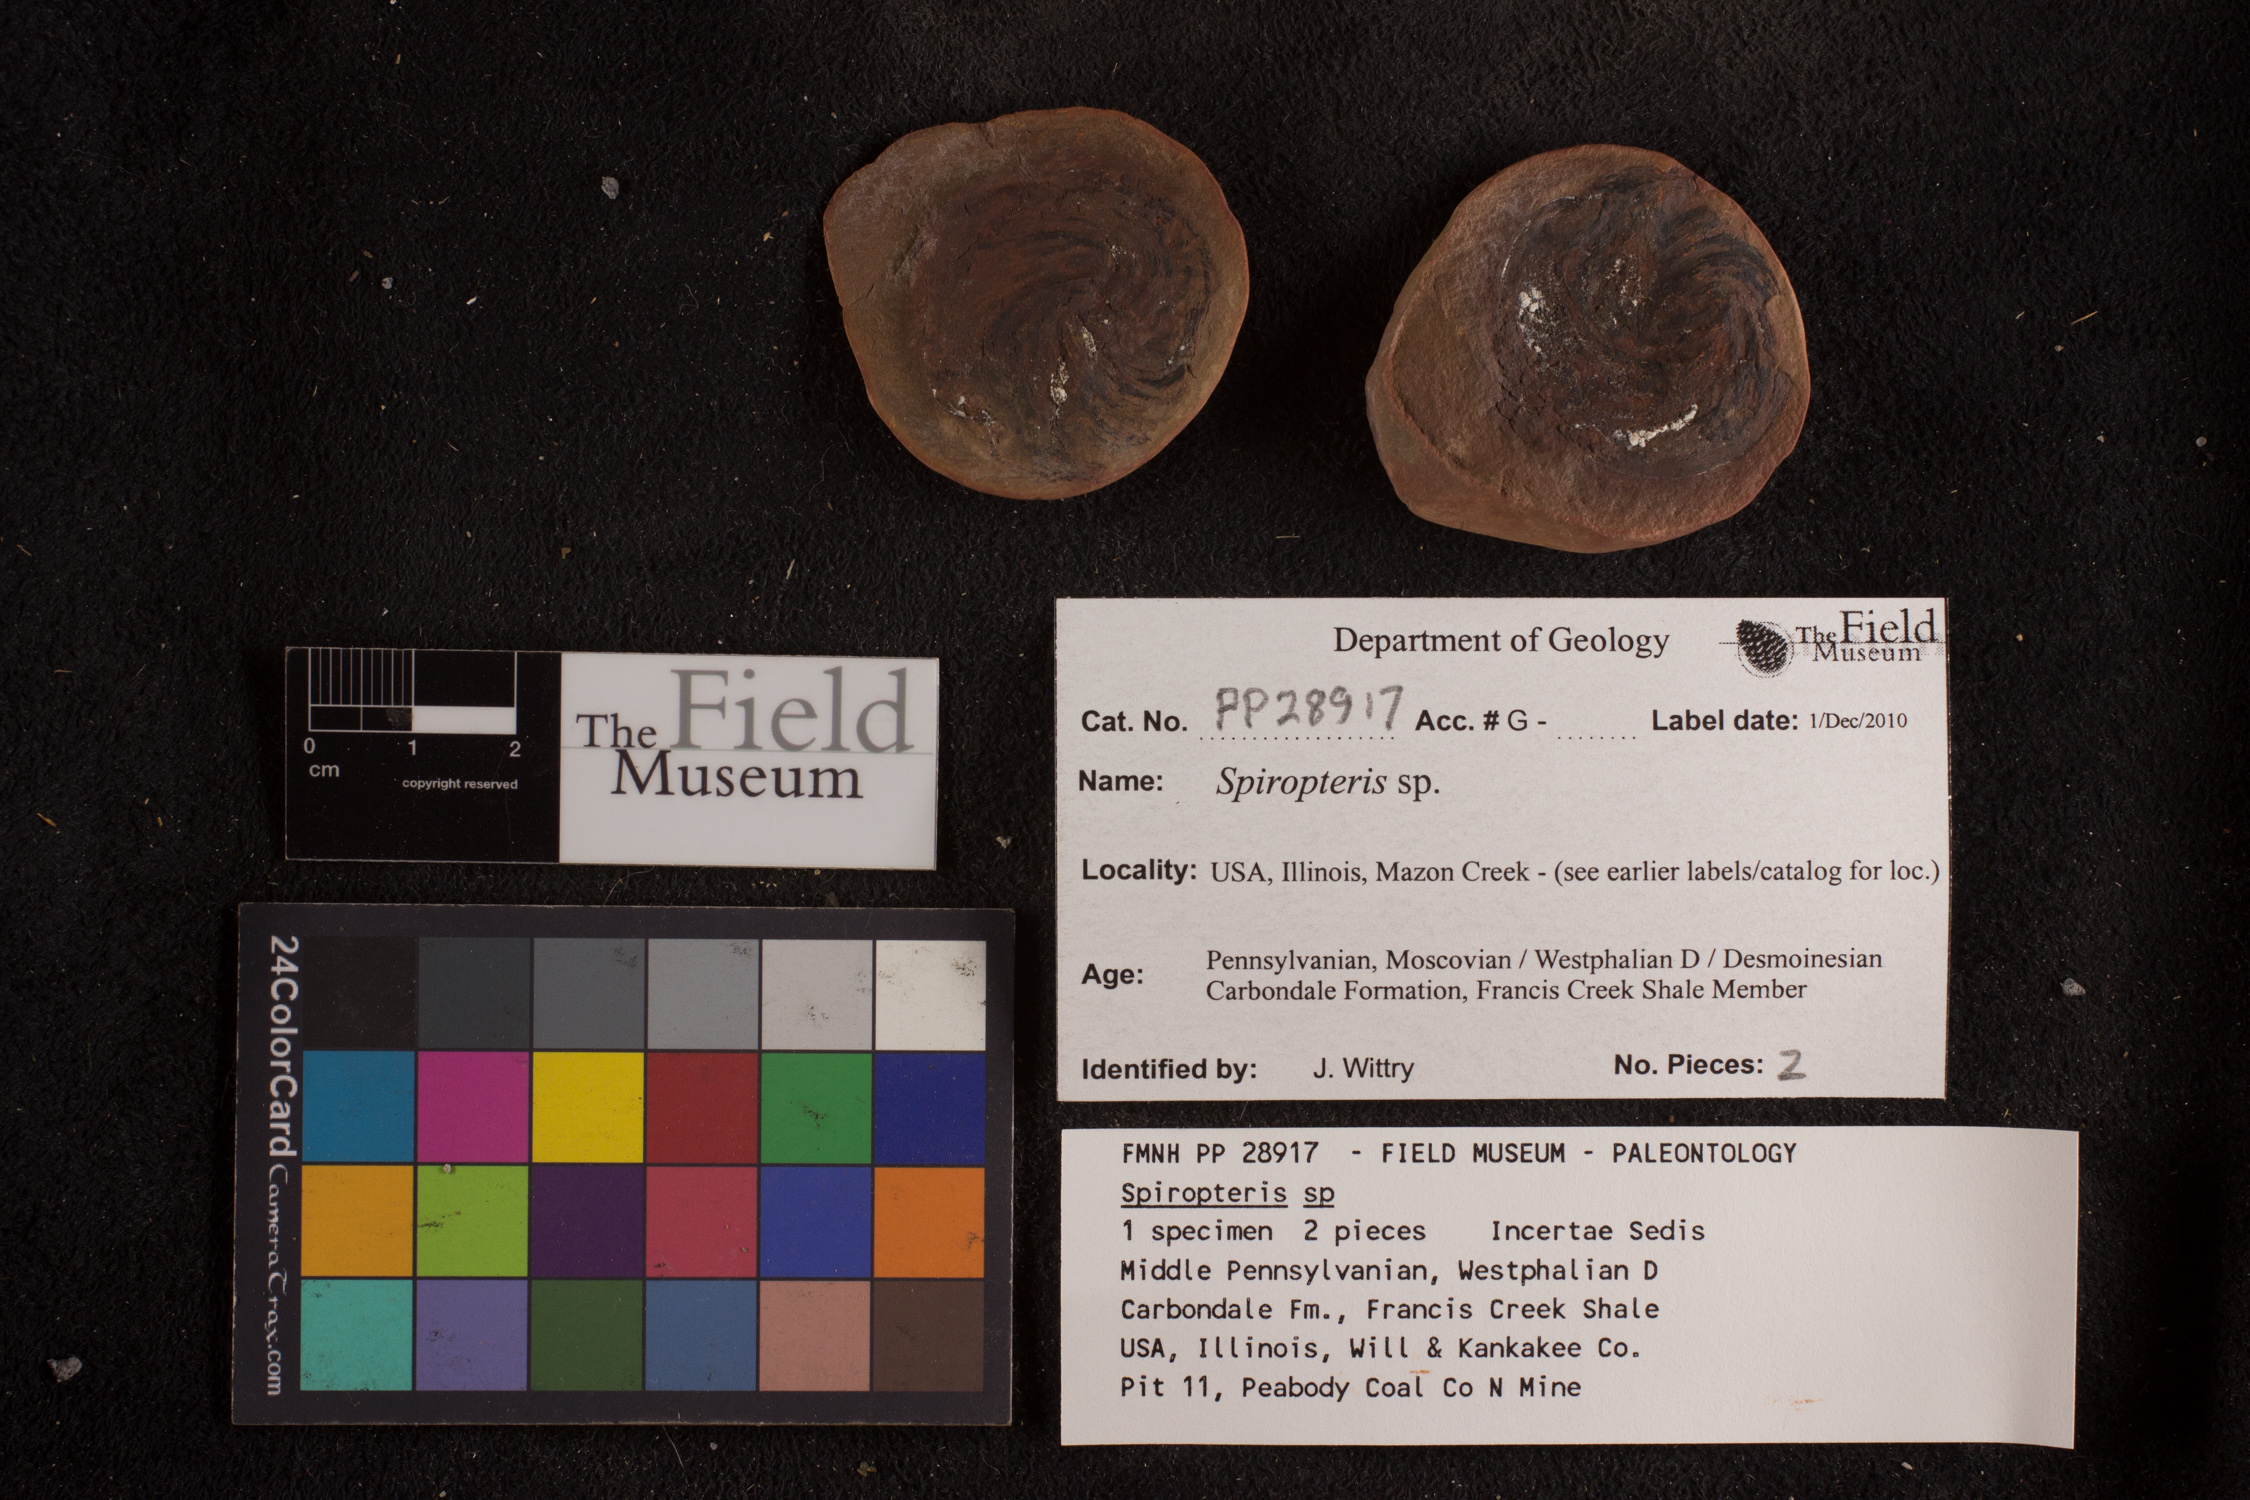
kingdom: Plantae
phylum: Tracheophyta
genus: Spiropteris
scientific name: Spiropteris
